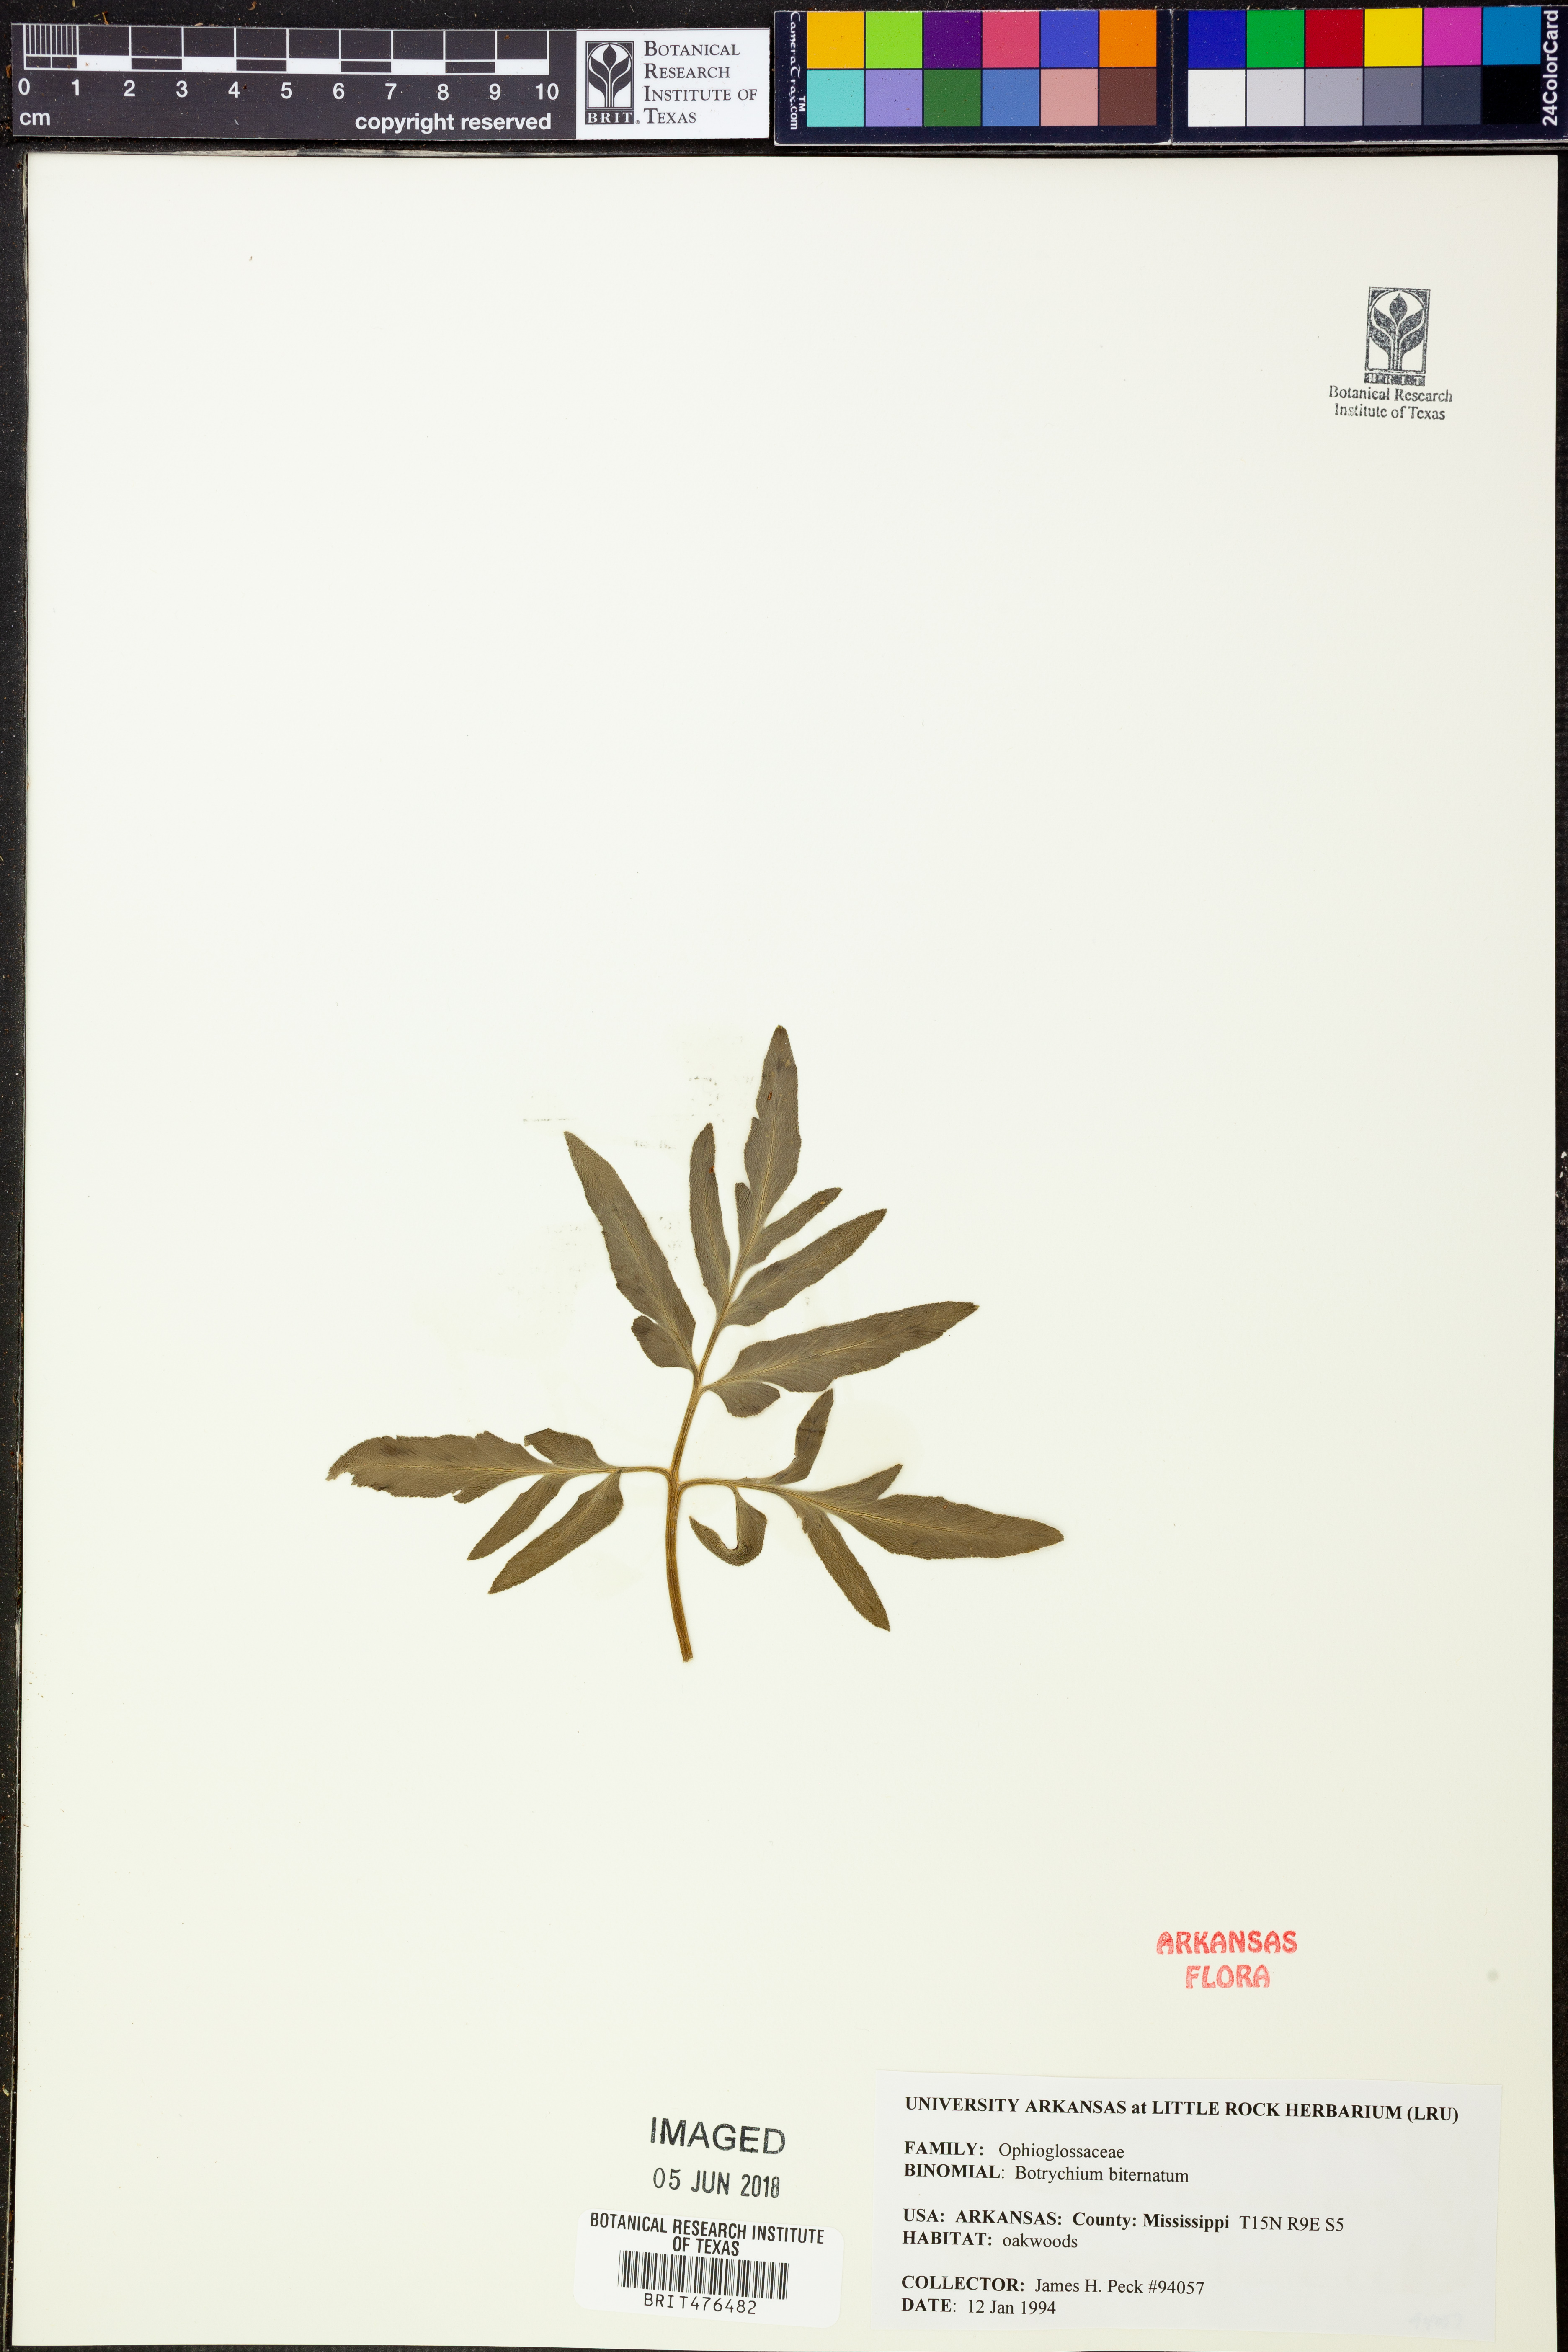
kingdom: Plantae
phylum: Tracheophyta
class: Polypodiopsida
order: Ophioglossales
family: Ophioglossaceae
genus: Sceptridium
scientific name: Sceptridium biternatum
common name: Sparse-lobed grapefern
